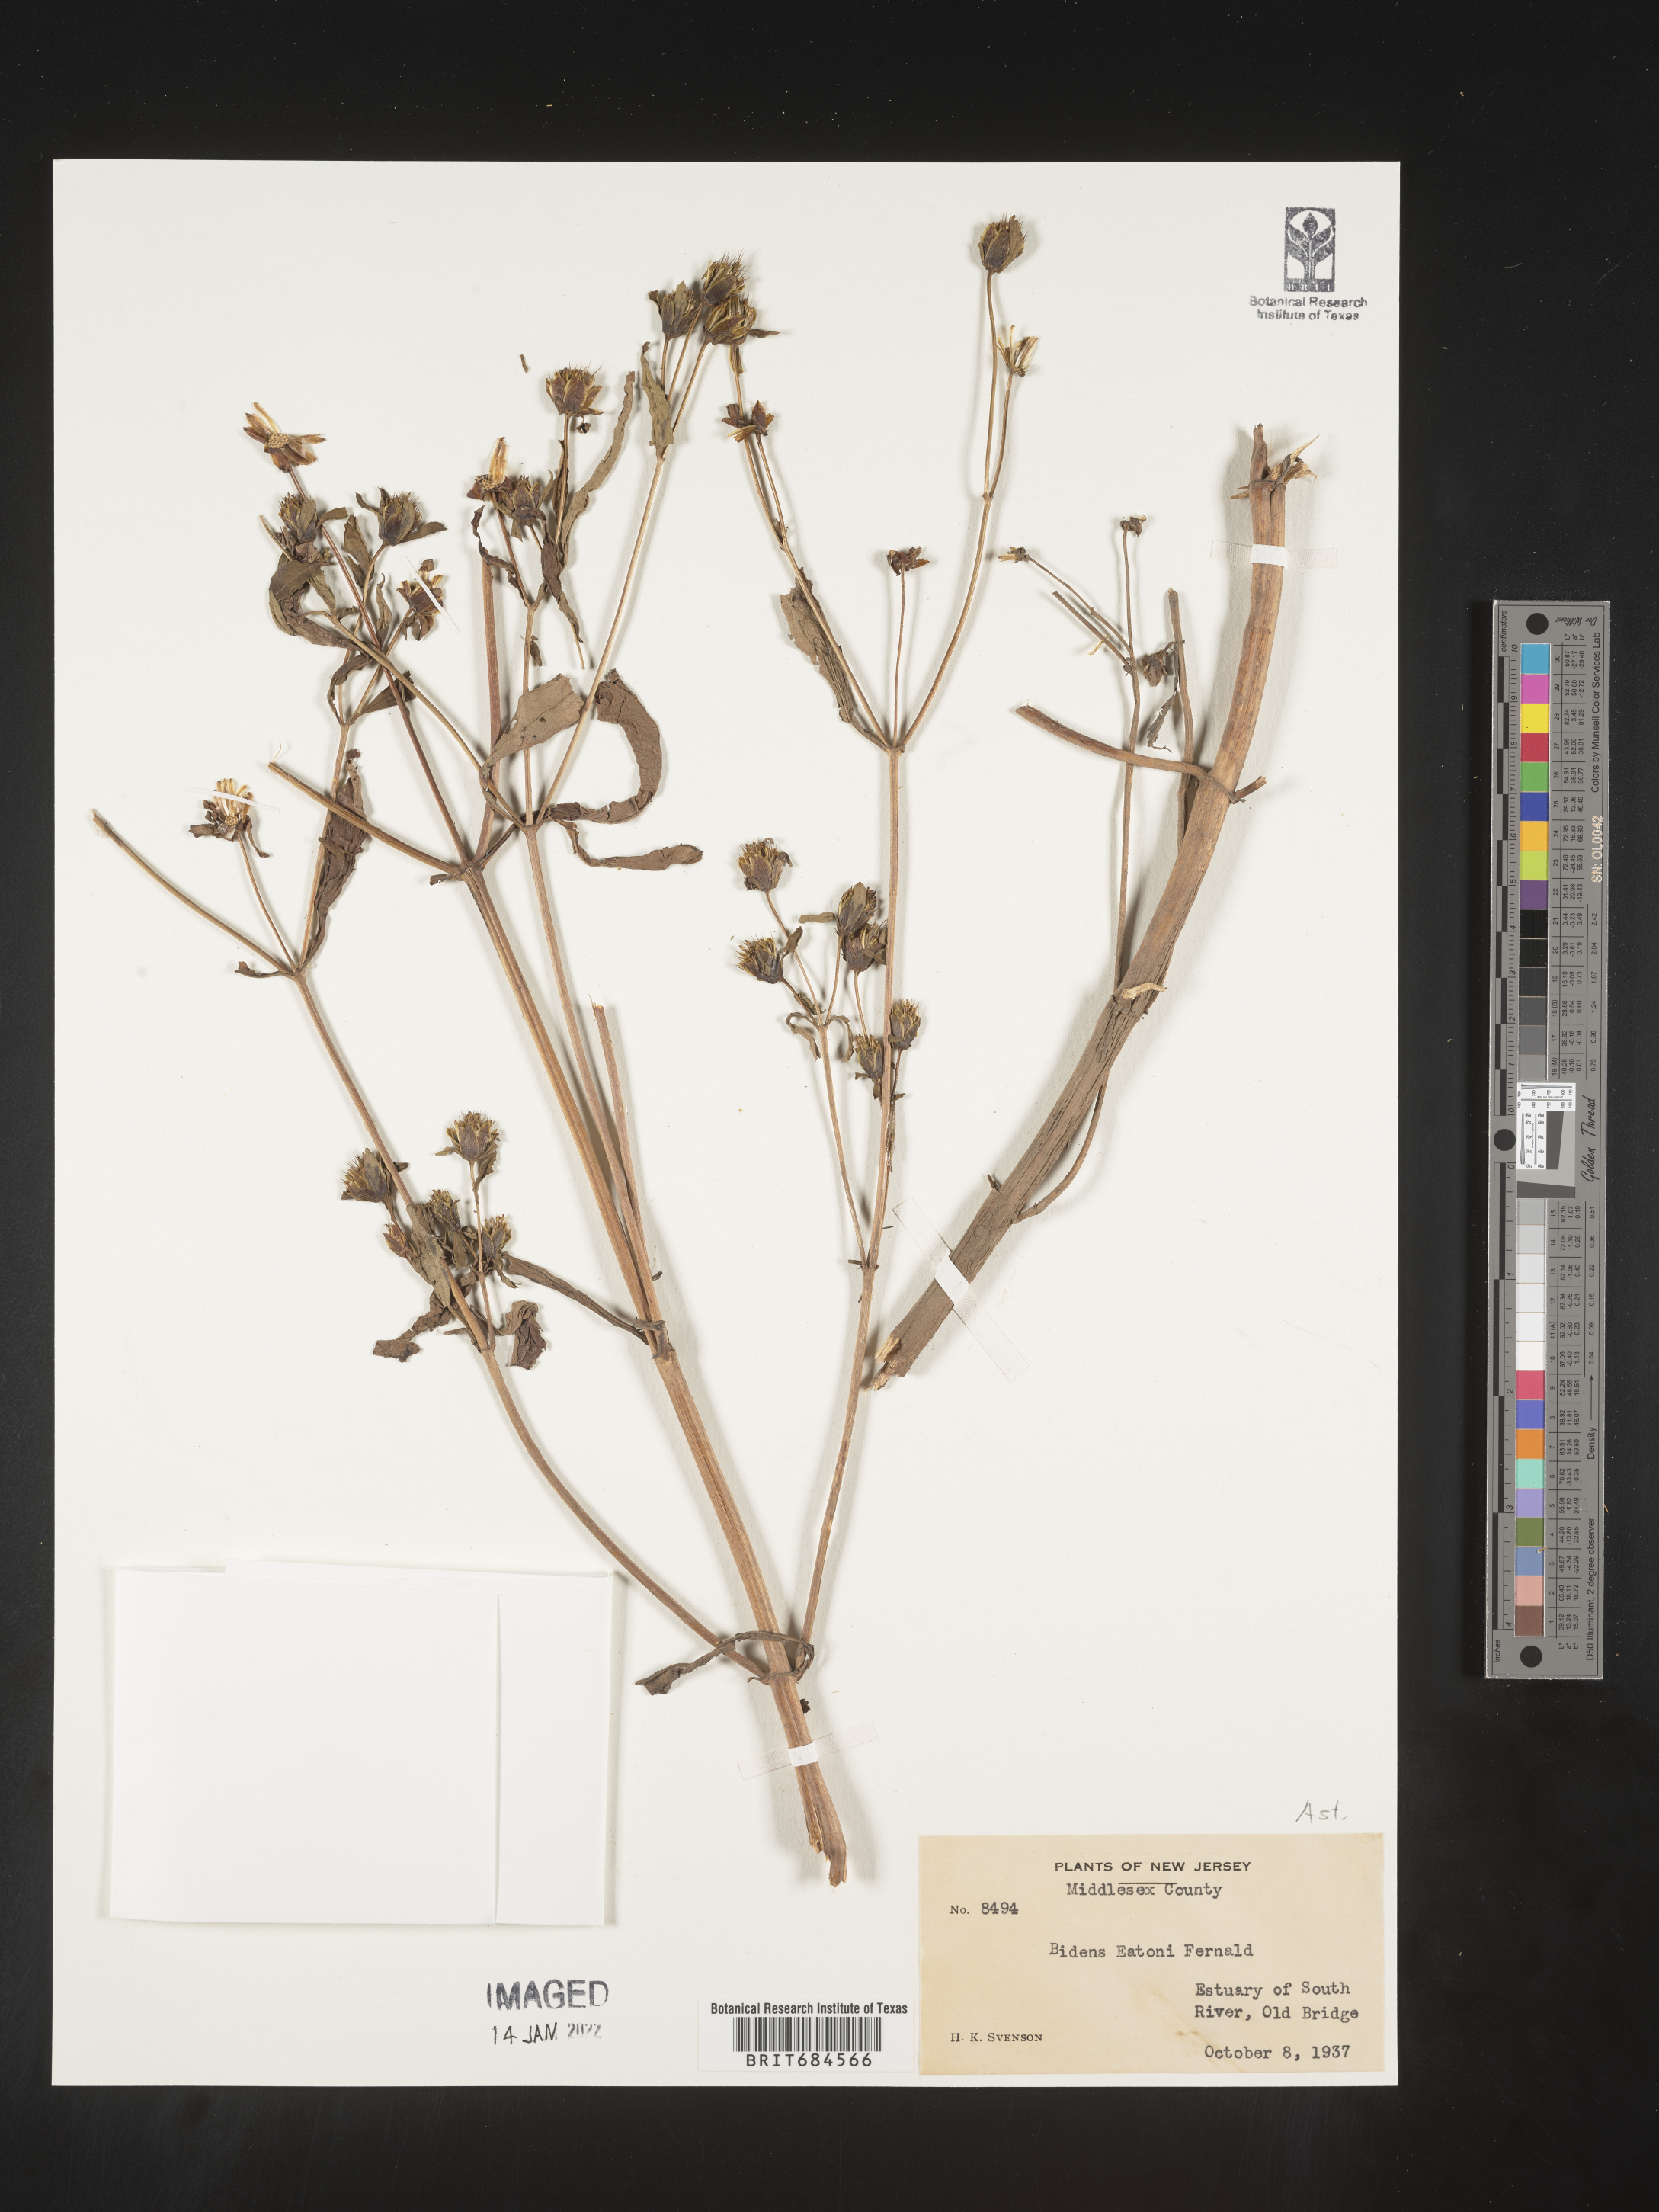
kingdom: Plantae
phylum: Tracheophyta
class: Magnoliopsida
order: Asterales
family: Asteraceae
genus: Bidens
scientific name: Bidens eatonii
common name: Eaton's beggarticks
